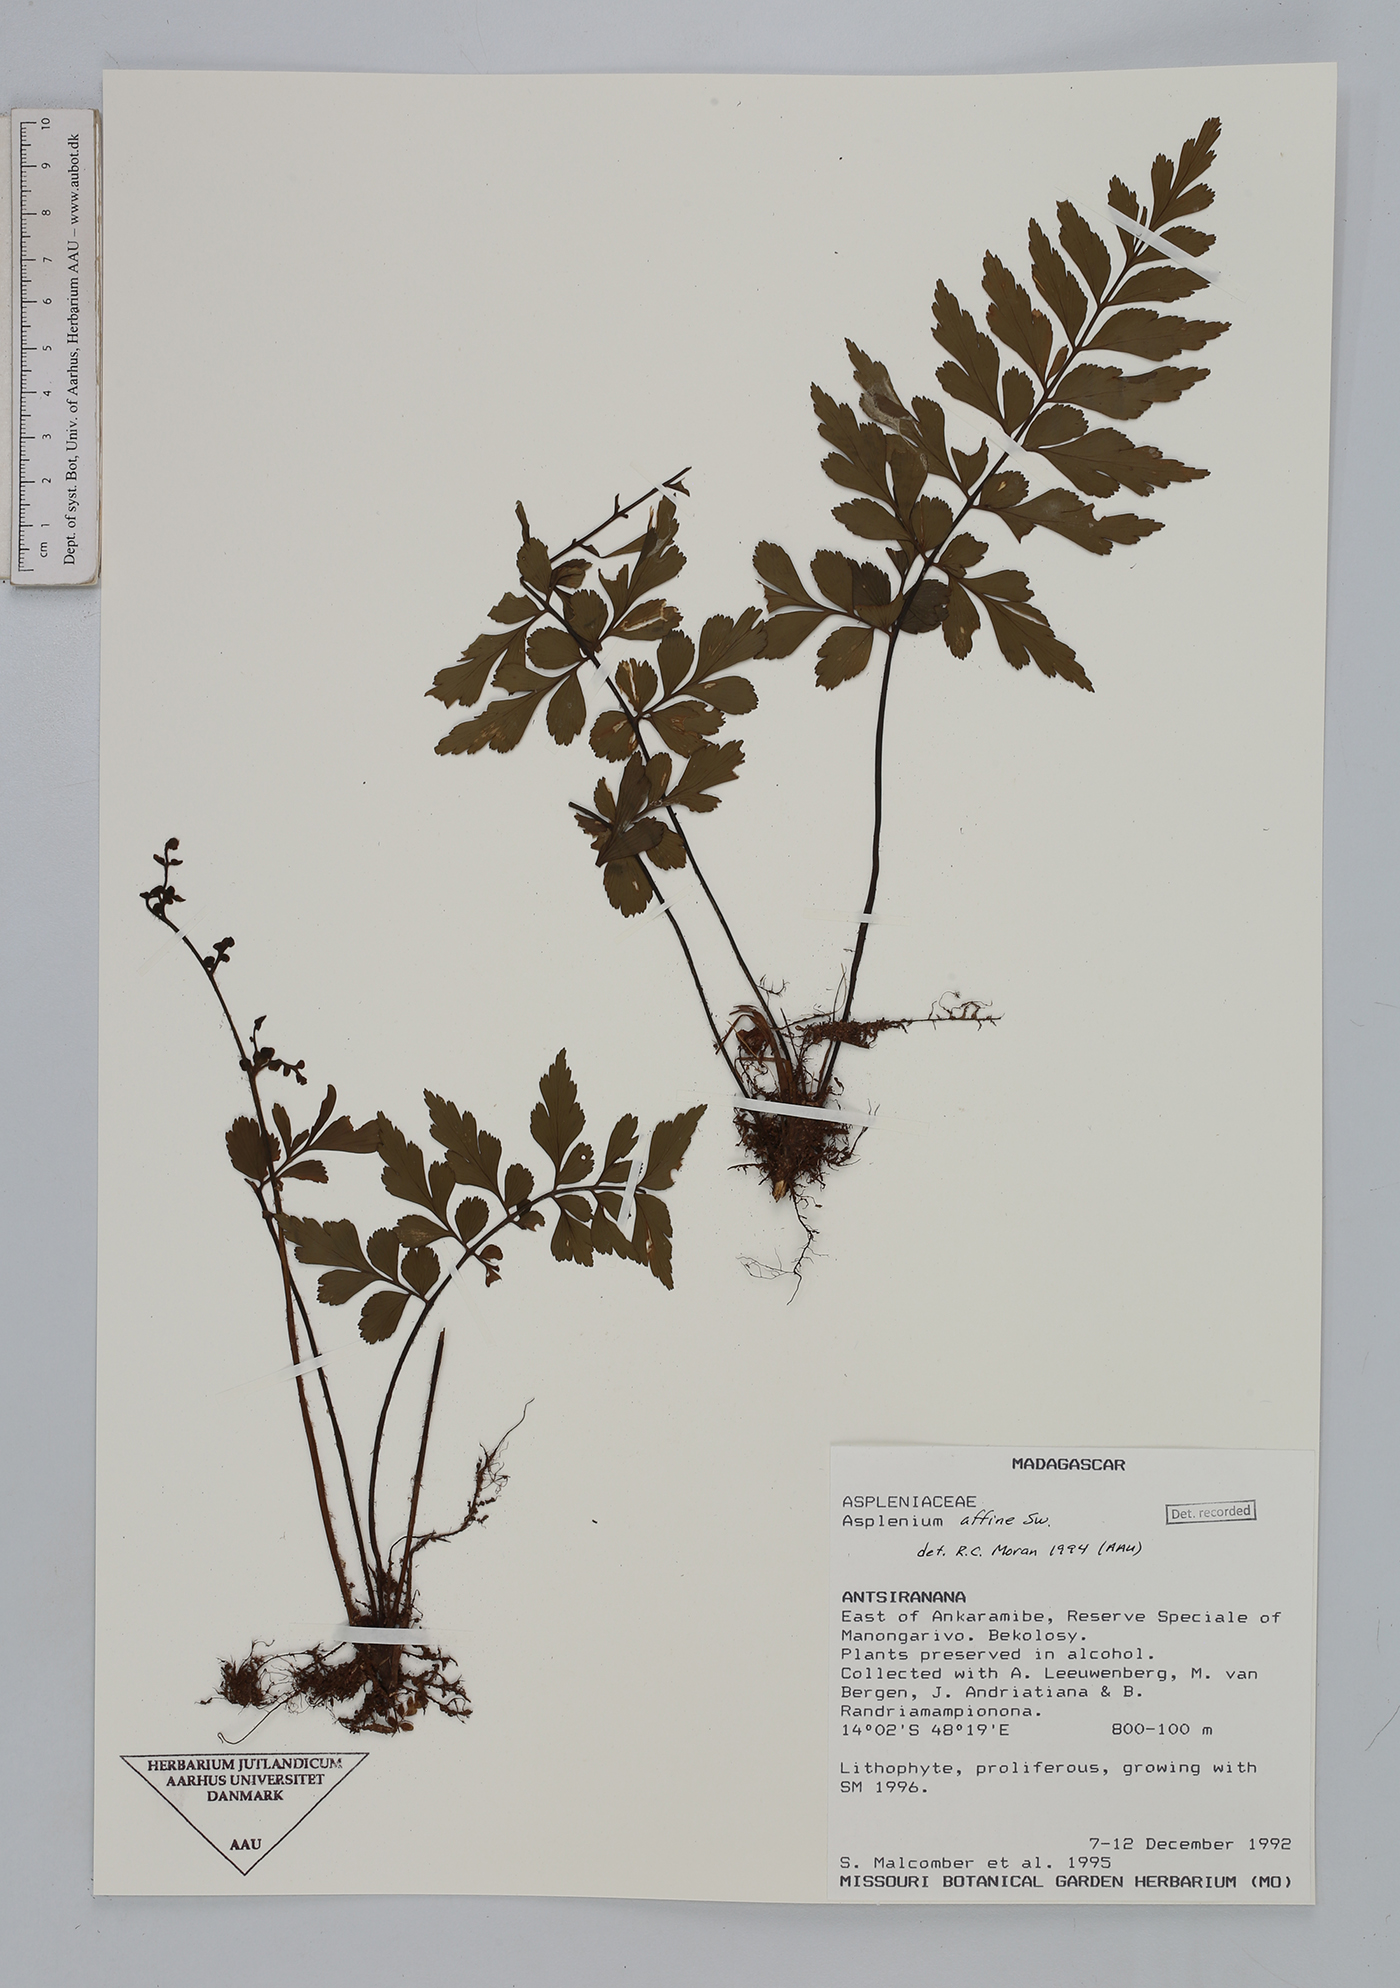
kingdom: Plantae
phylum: Tracheophyta
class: Polypodiopsida
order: Polypodiales
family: Aspleniaceae
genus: Asplenium
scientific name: Asplenium affine
